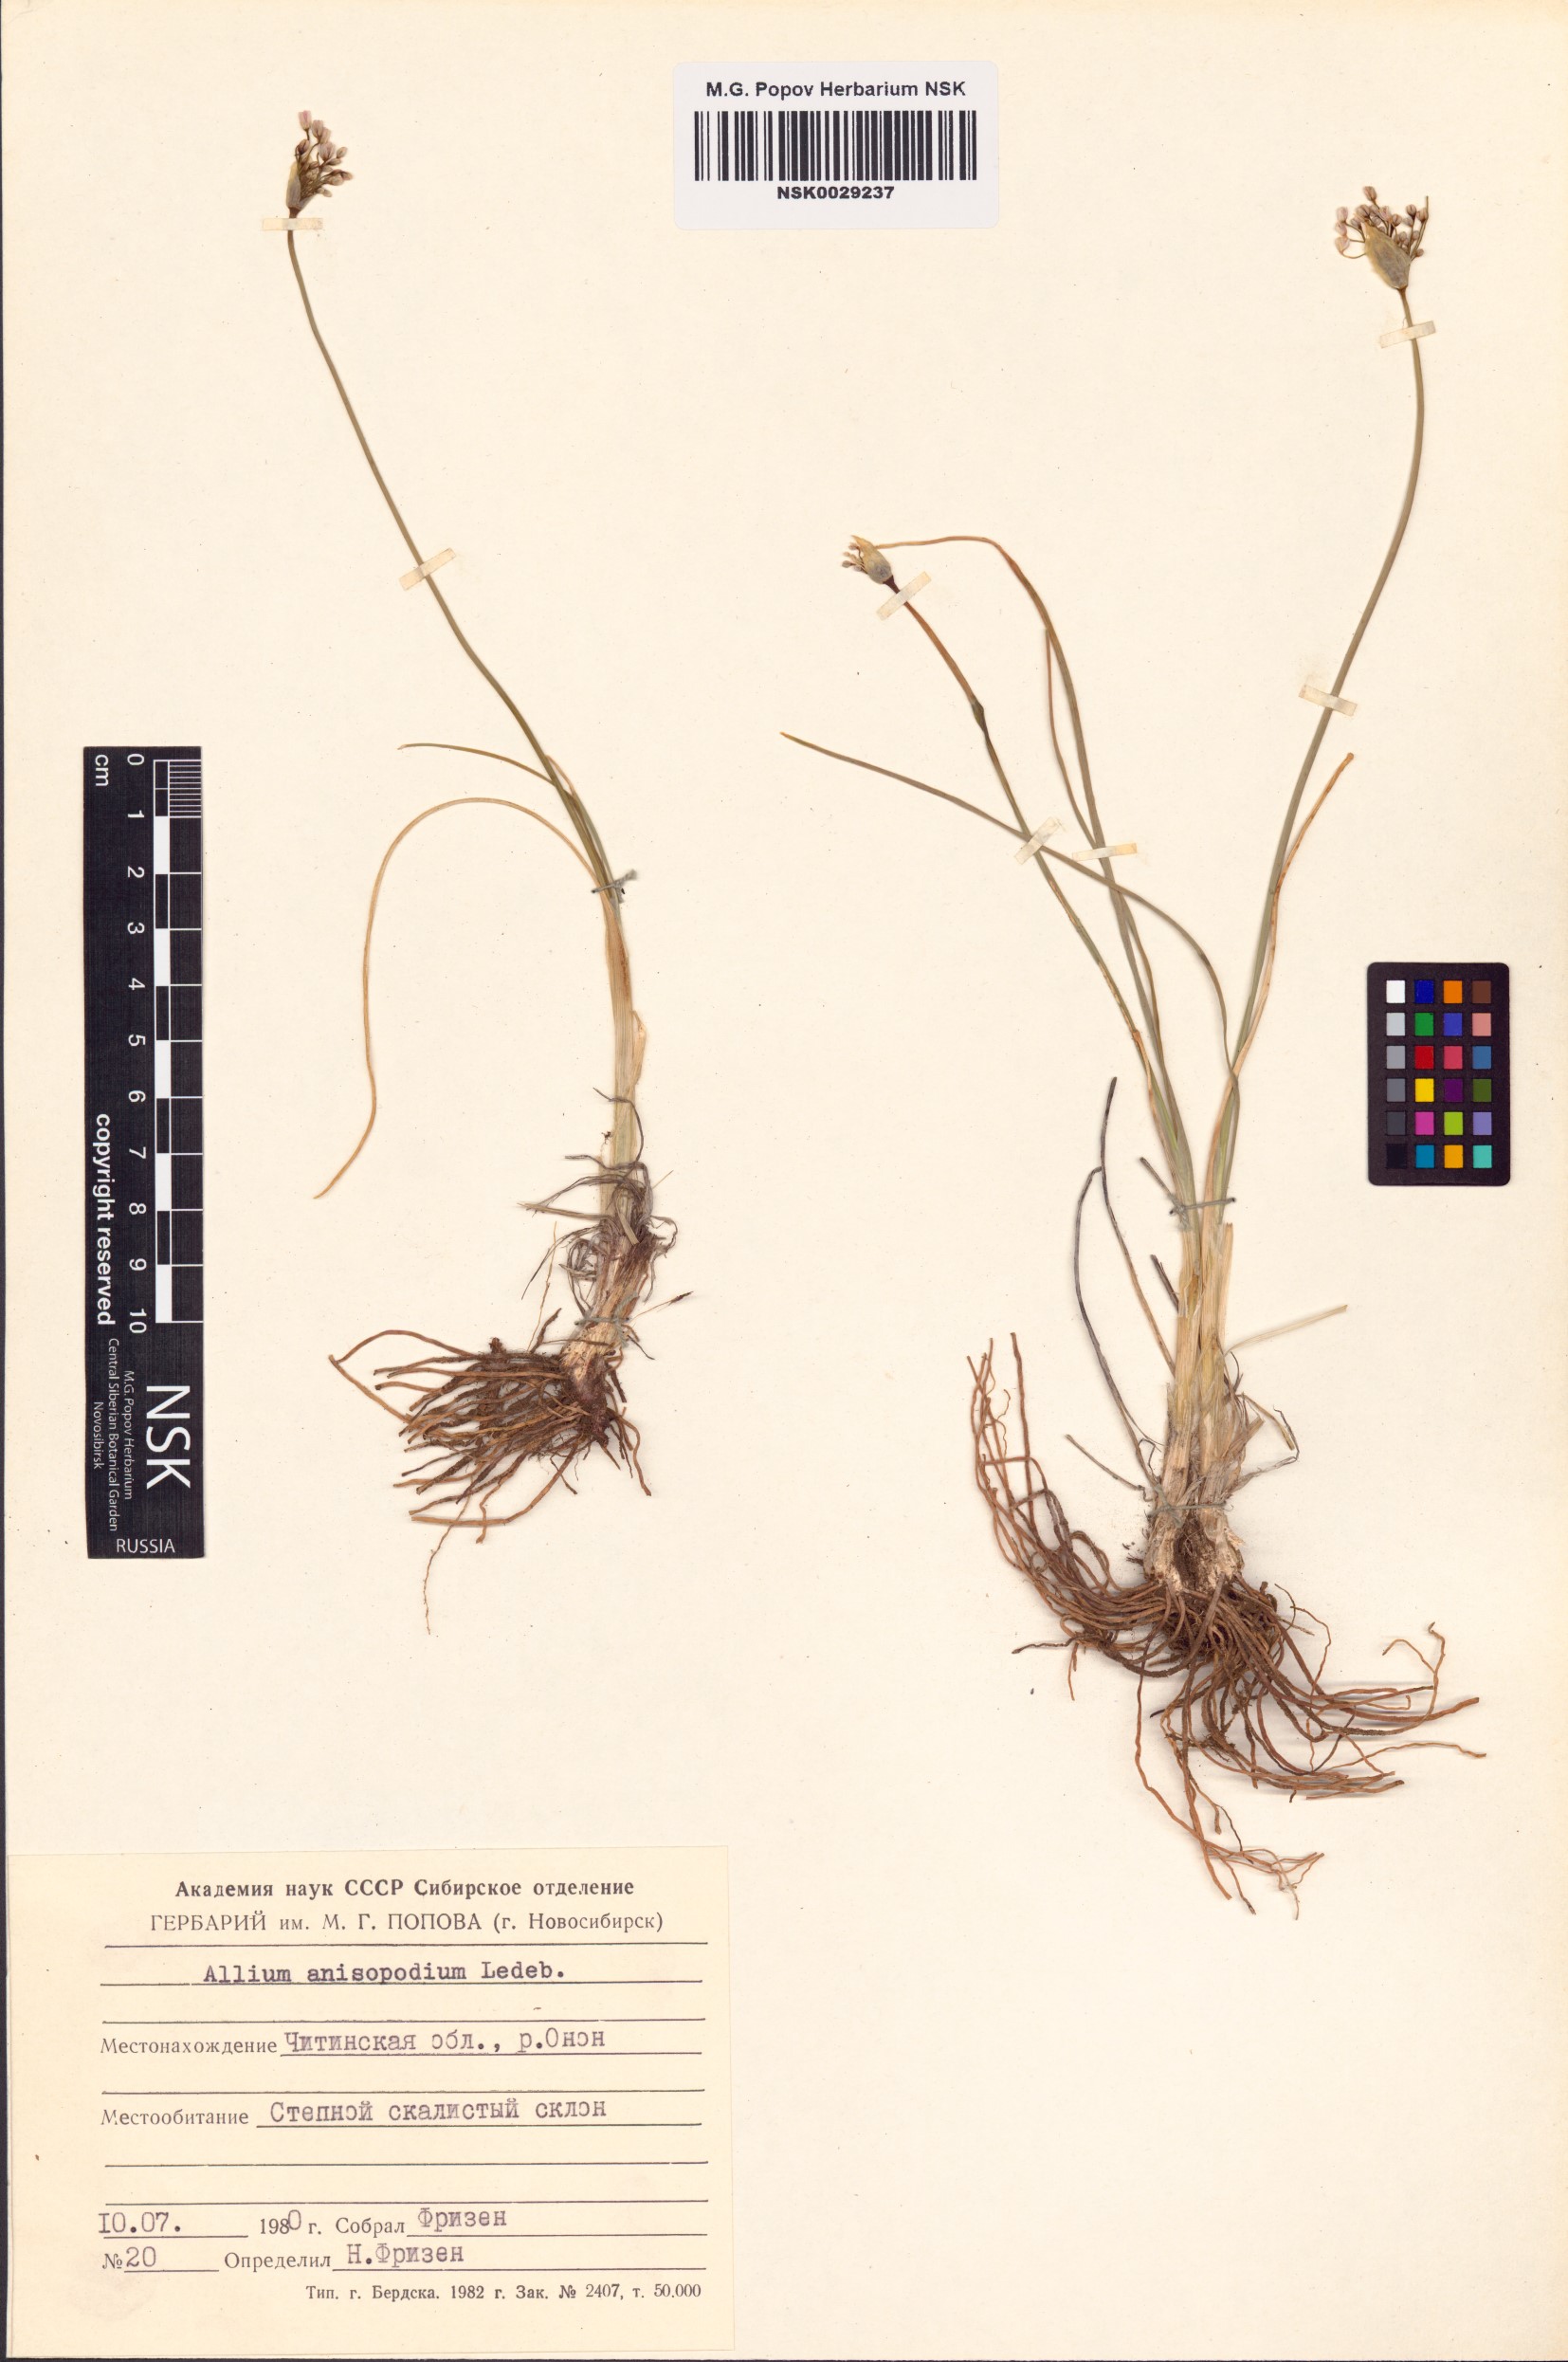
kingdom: Plantae
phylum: Tracheophyta
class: Liliopsida
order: Asparagales
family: Amaryllidaceae
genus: Allium
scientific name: Allium anisopodium
